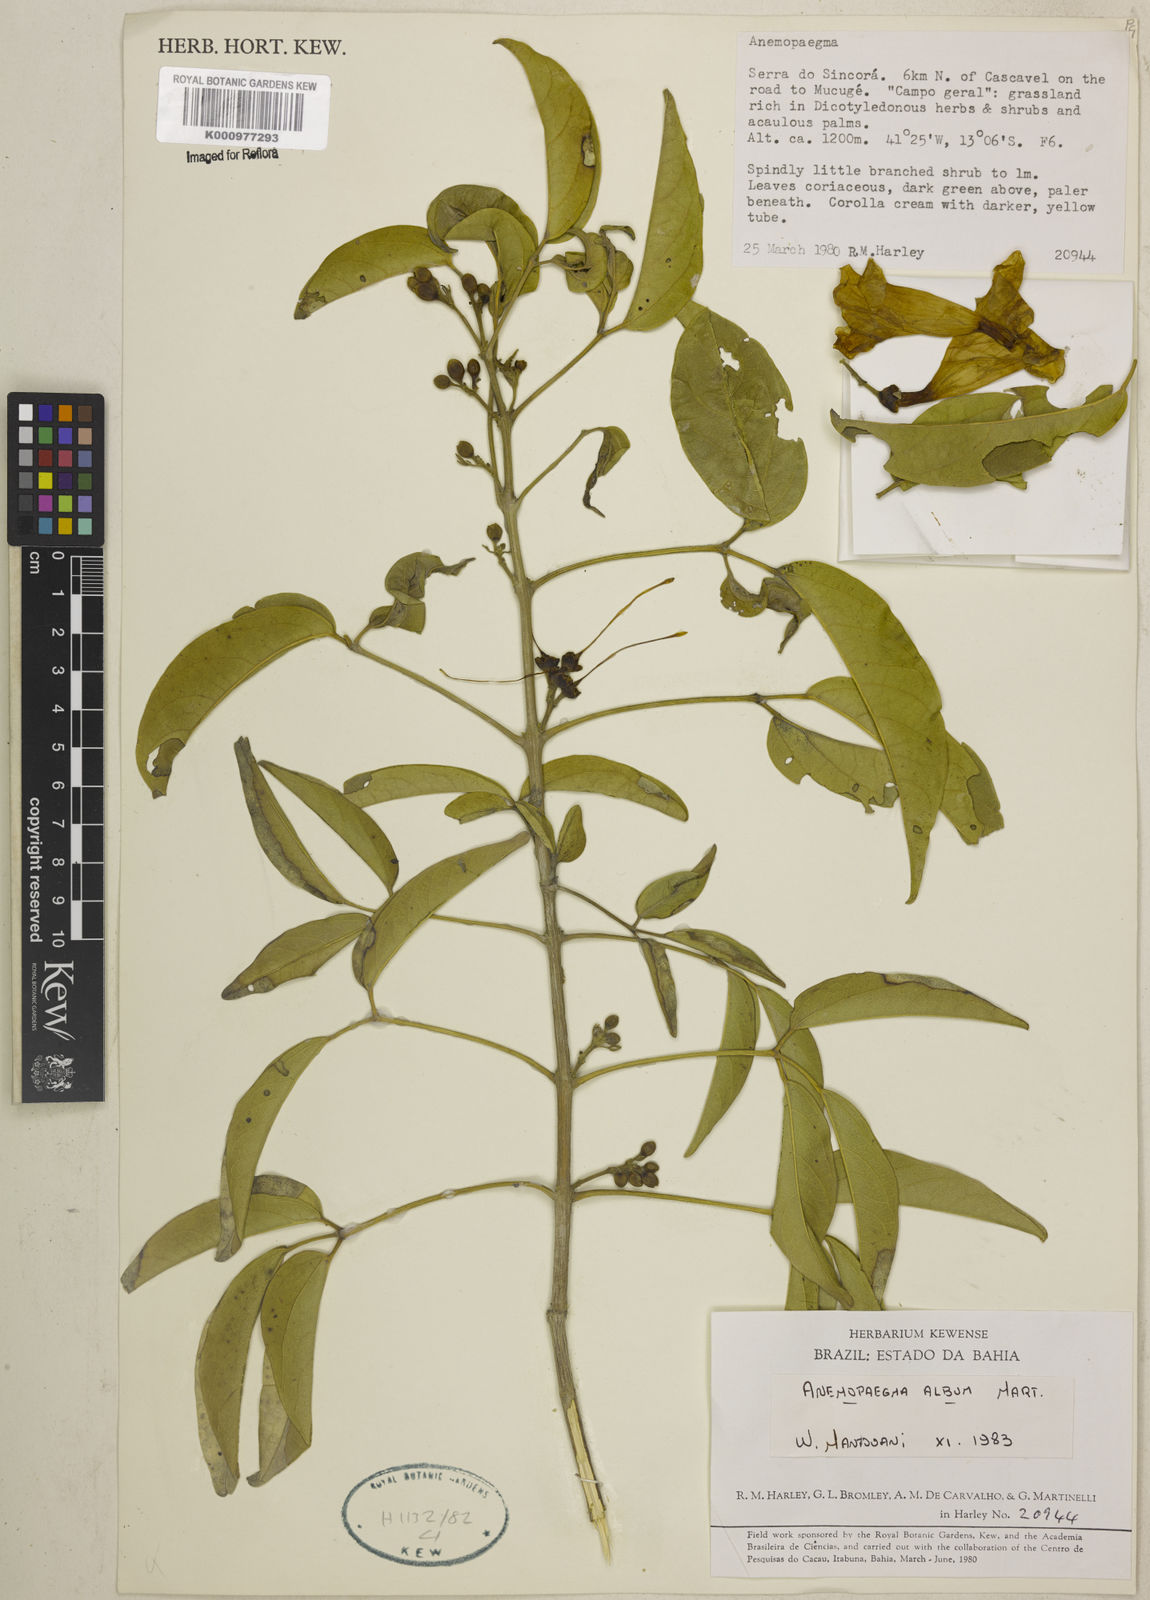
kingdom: Plantae
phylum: Tracheophyta
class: Magnoliopsida
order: Lamiales
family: Bignoniaceae
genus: Anemopaegma
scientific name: Anemopaegma album
